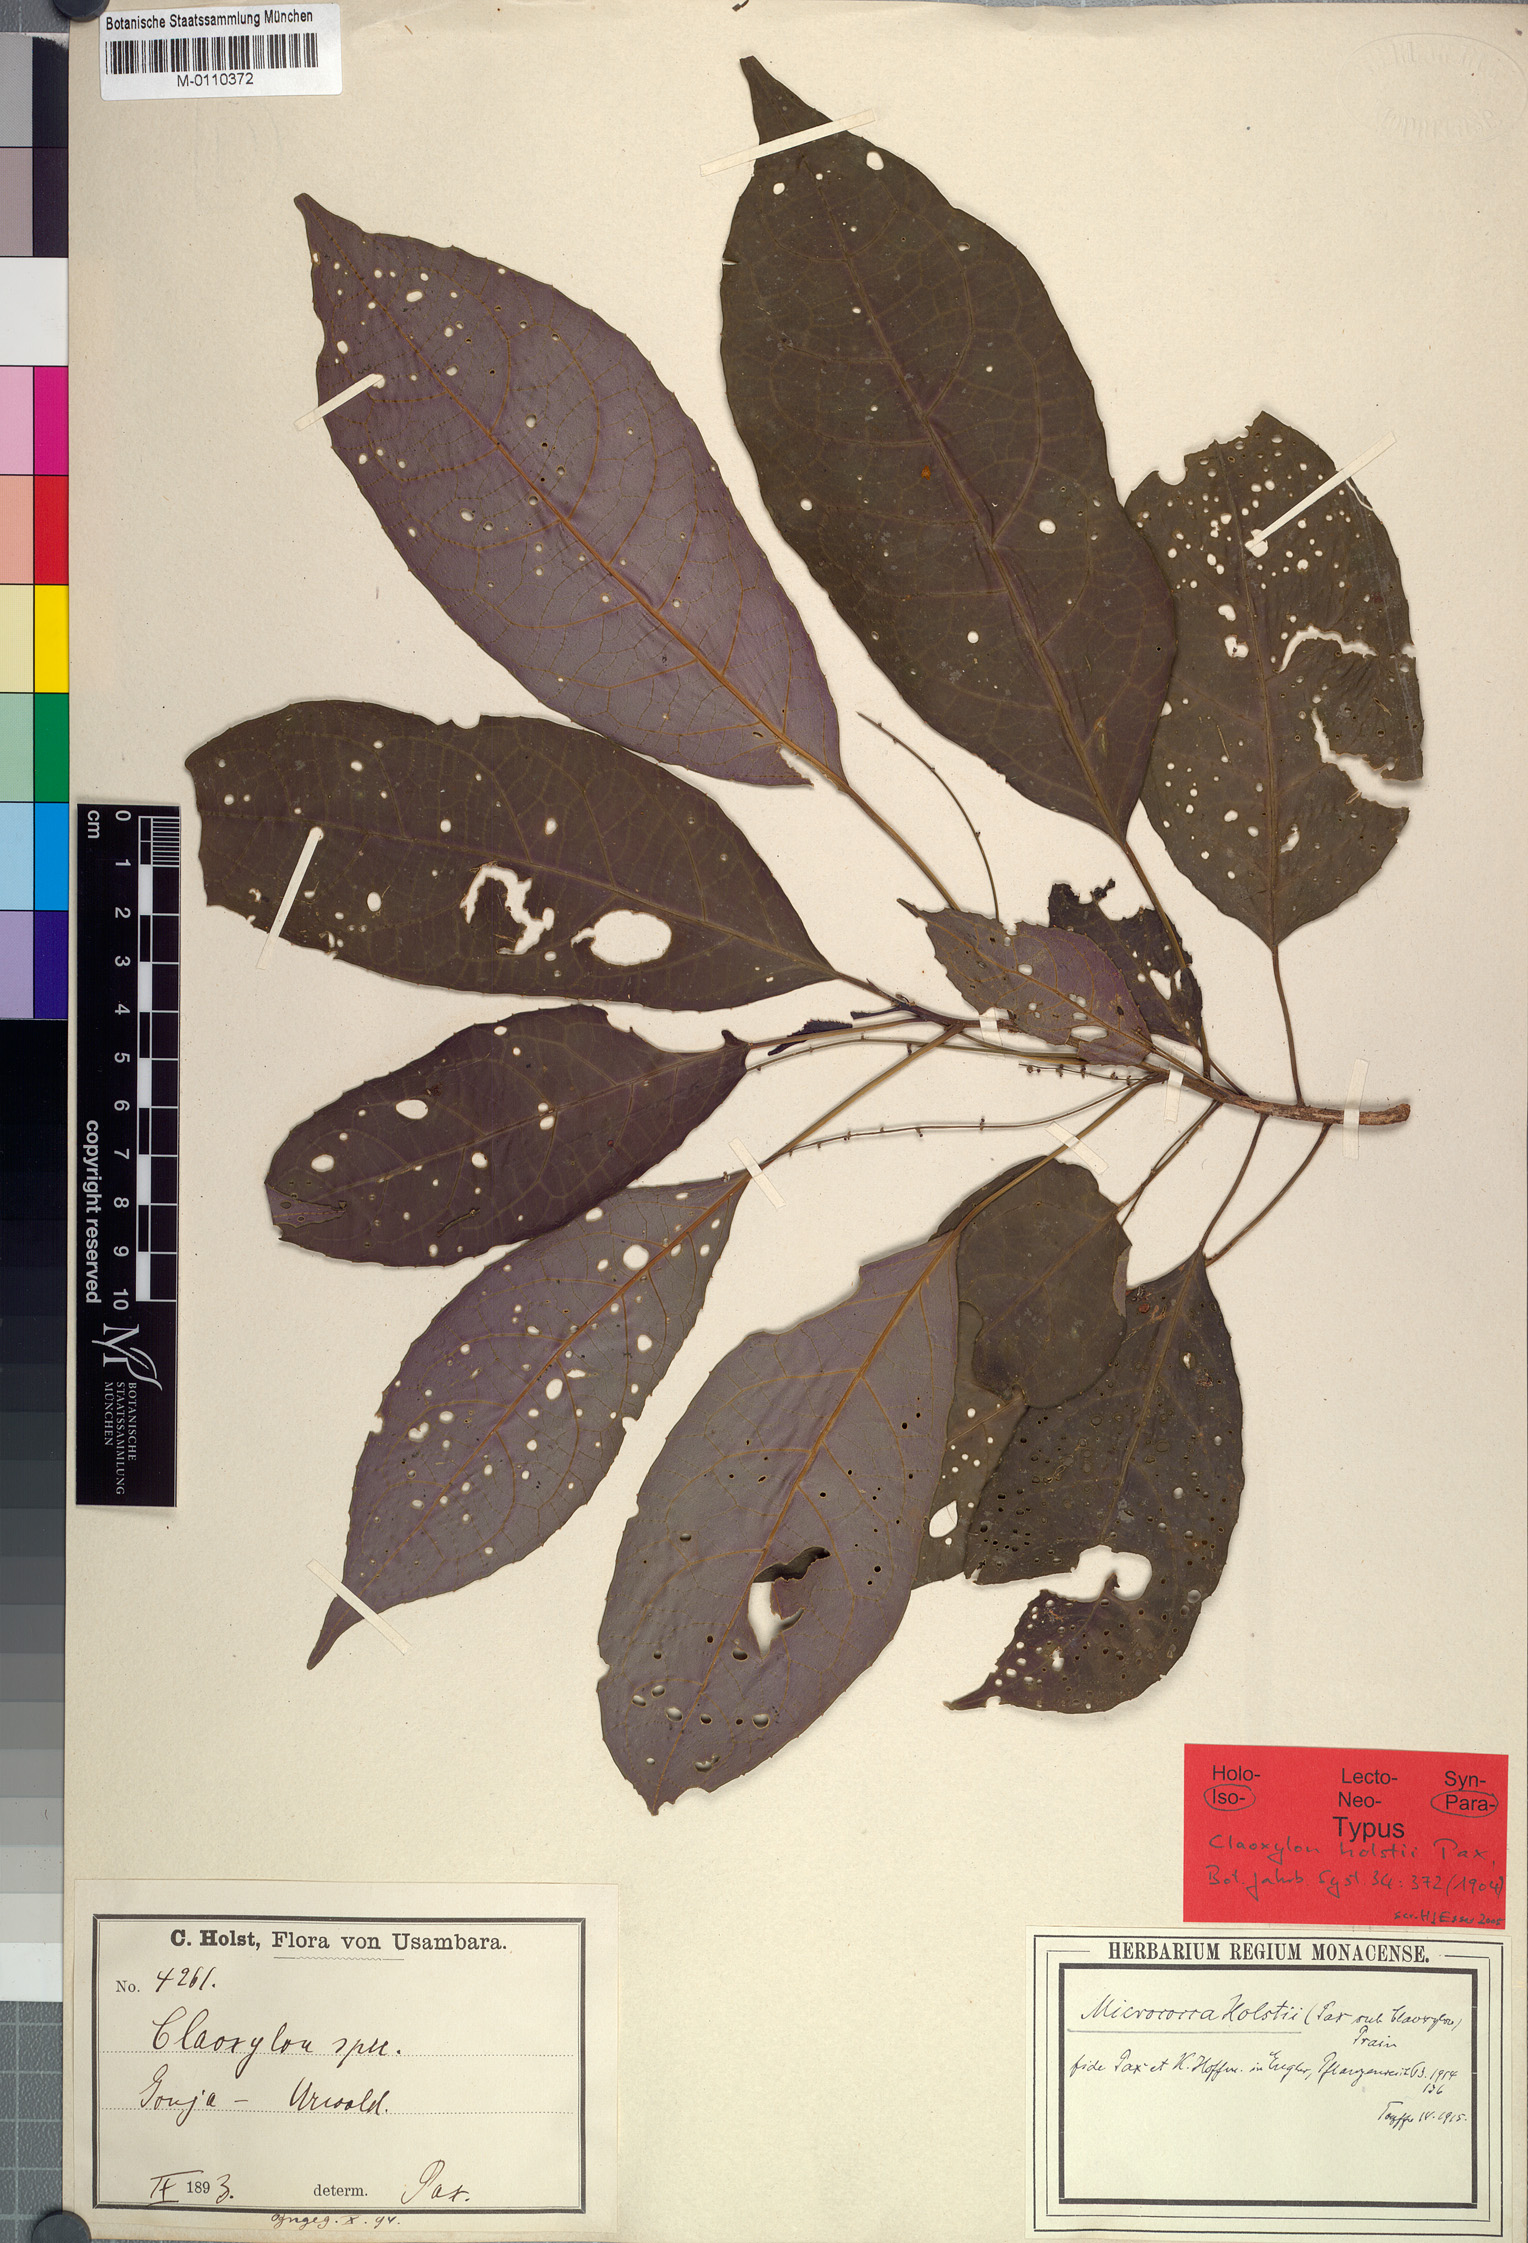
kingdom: Plantae
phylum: Tracheophyta
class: Magnoliopsida
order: Malpighiales
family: Euphorbiaceae
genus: Micrococca
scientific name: Micrococca holstii
